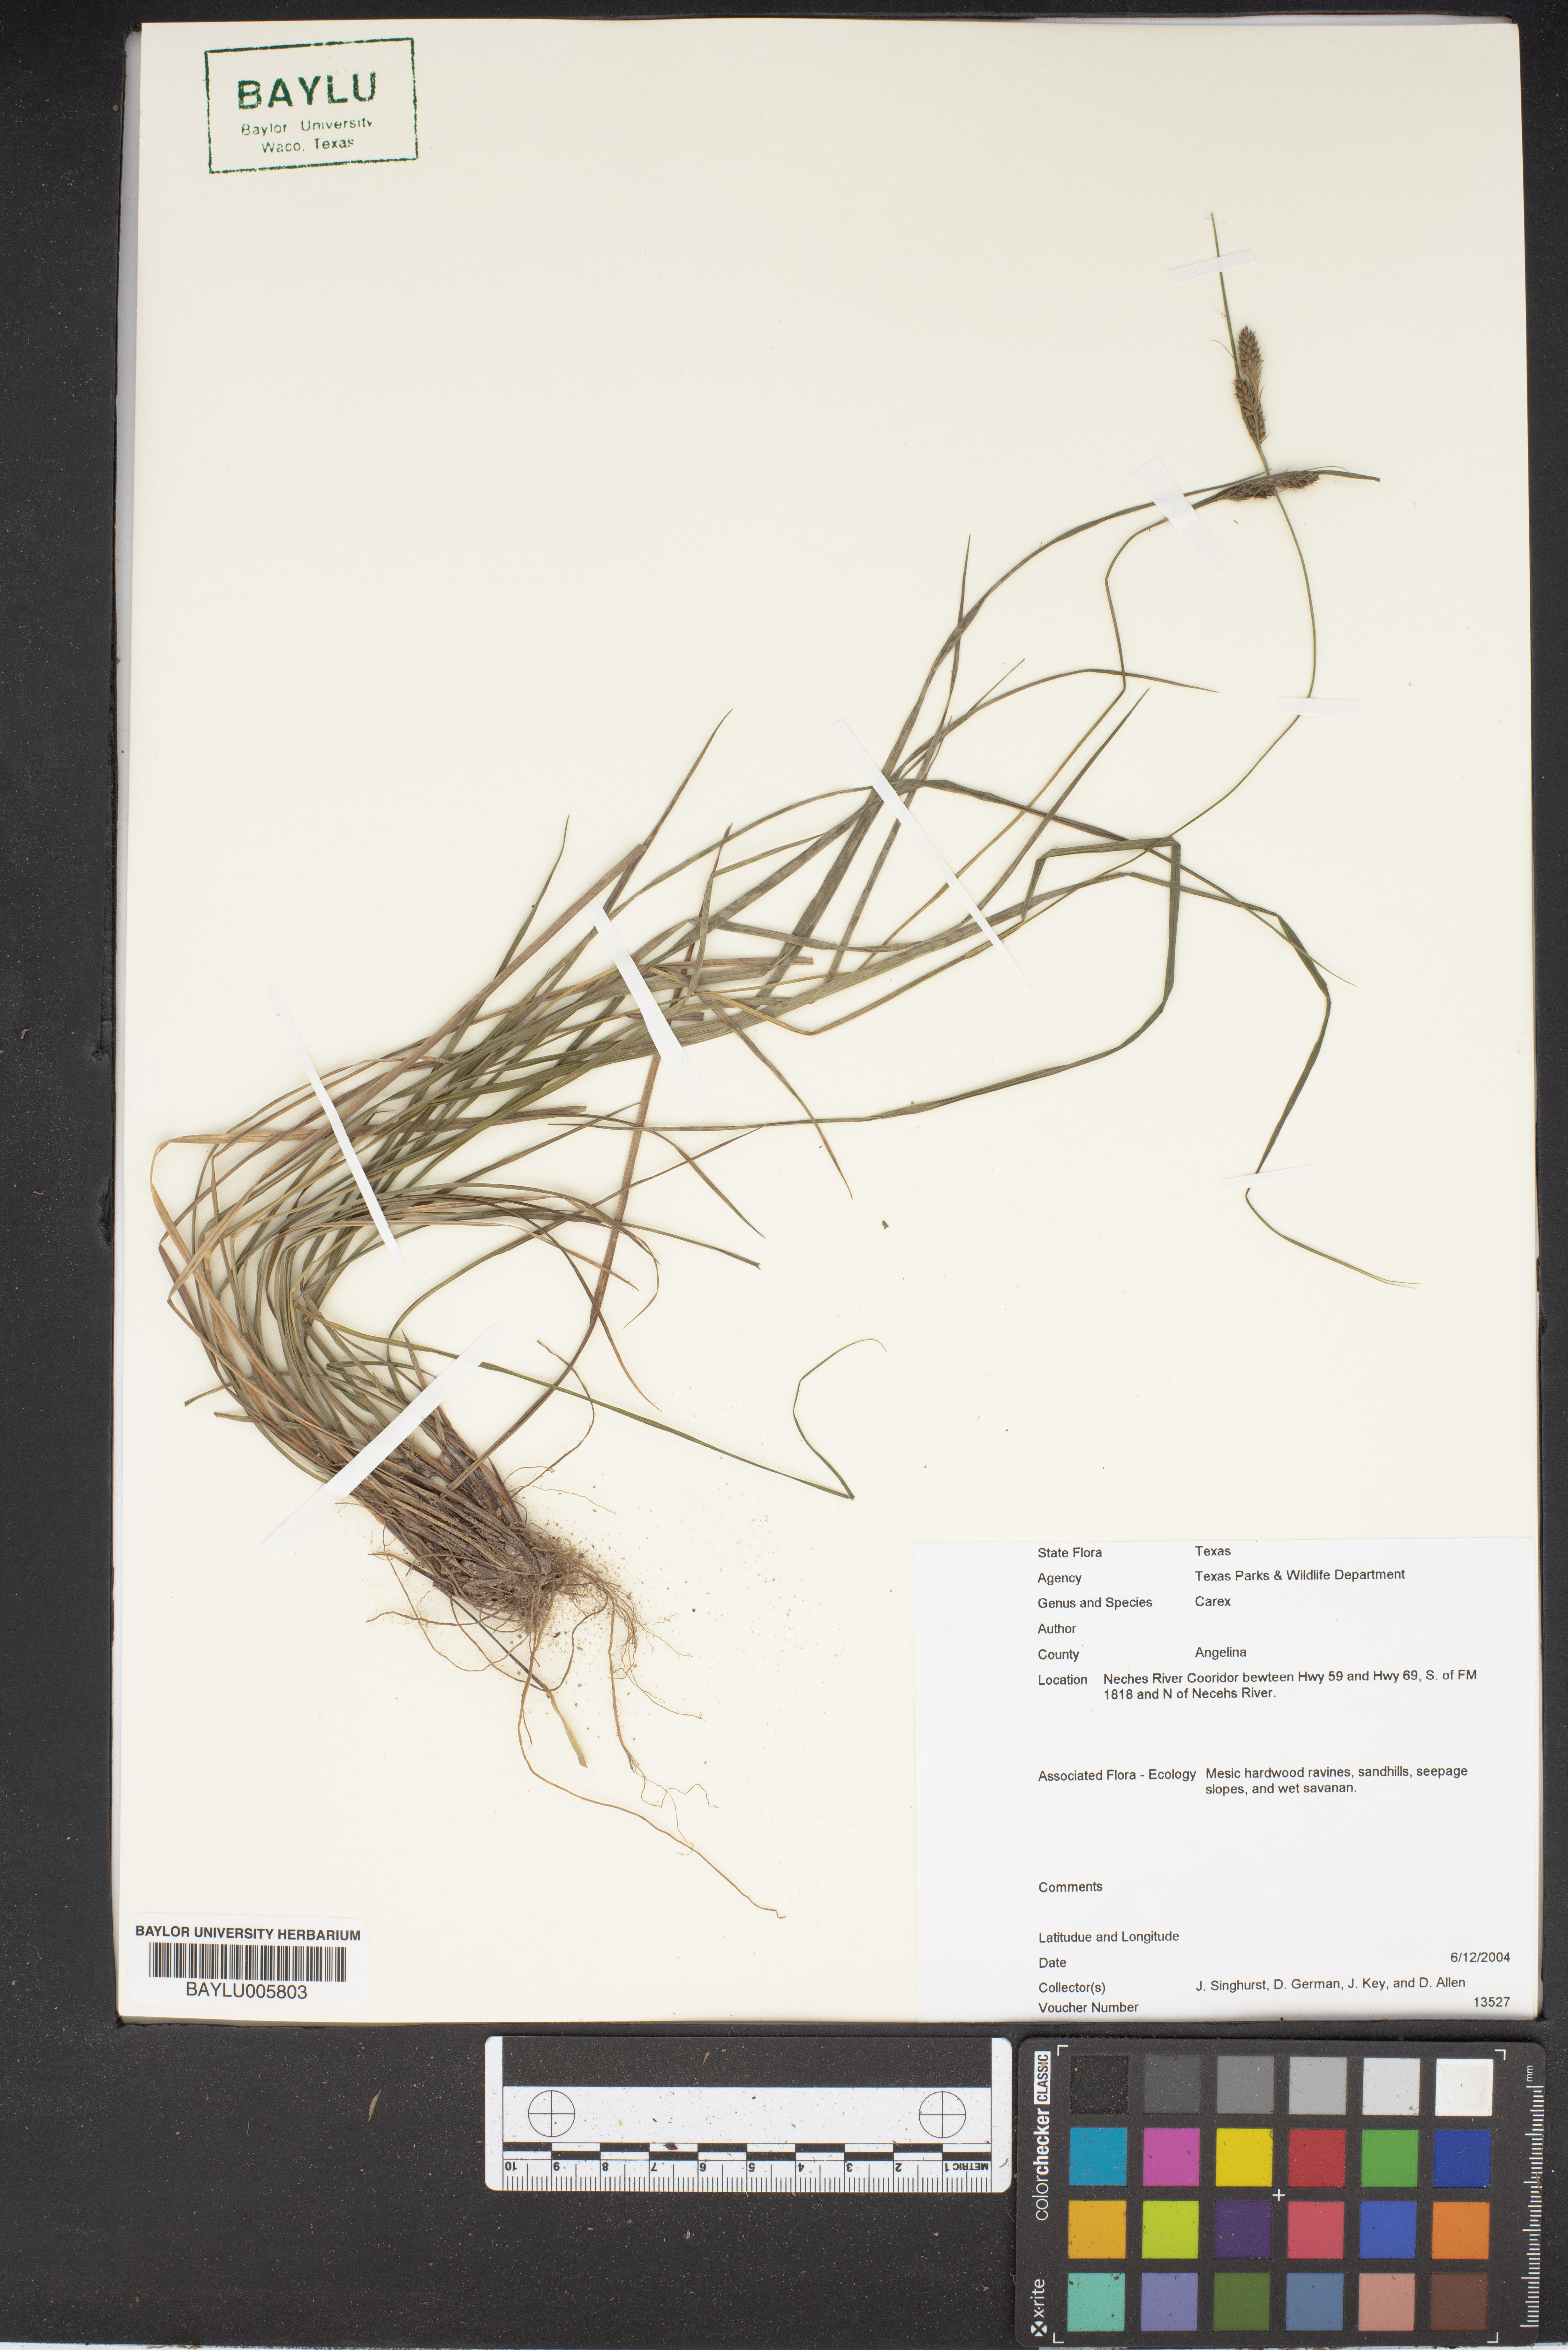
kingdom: Plantae
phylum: Tracheophyta
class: Liliopsida
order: Poales
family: Cyperaceae
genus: Carex
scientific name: Carex
